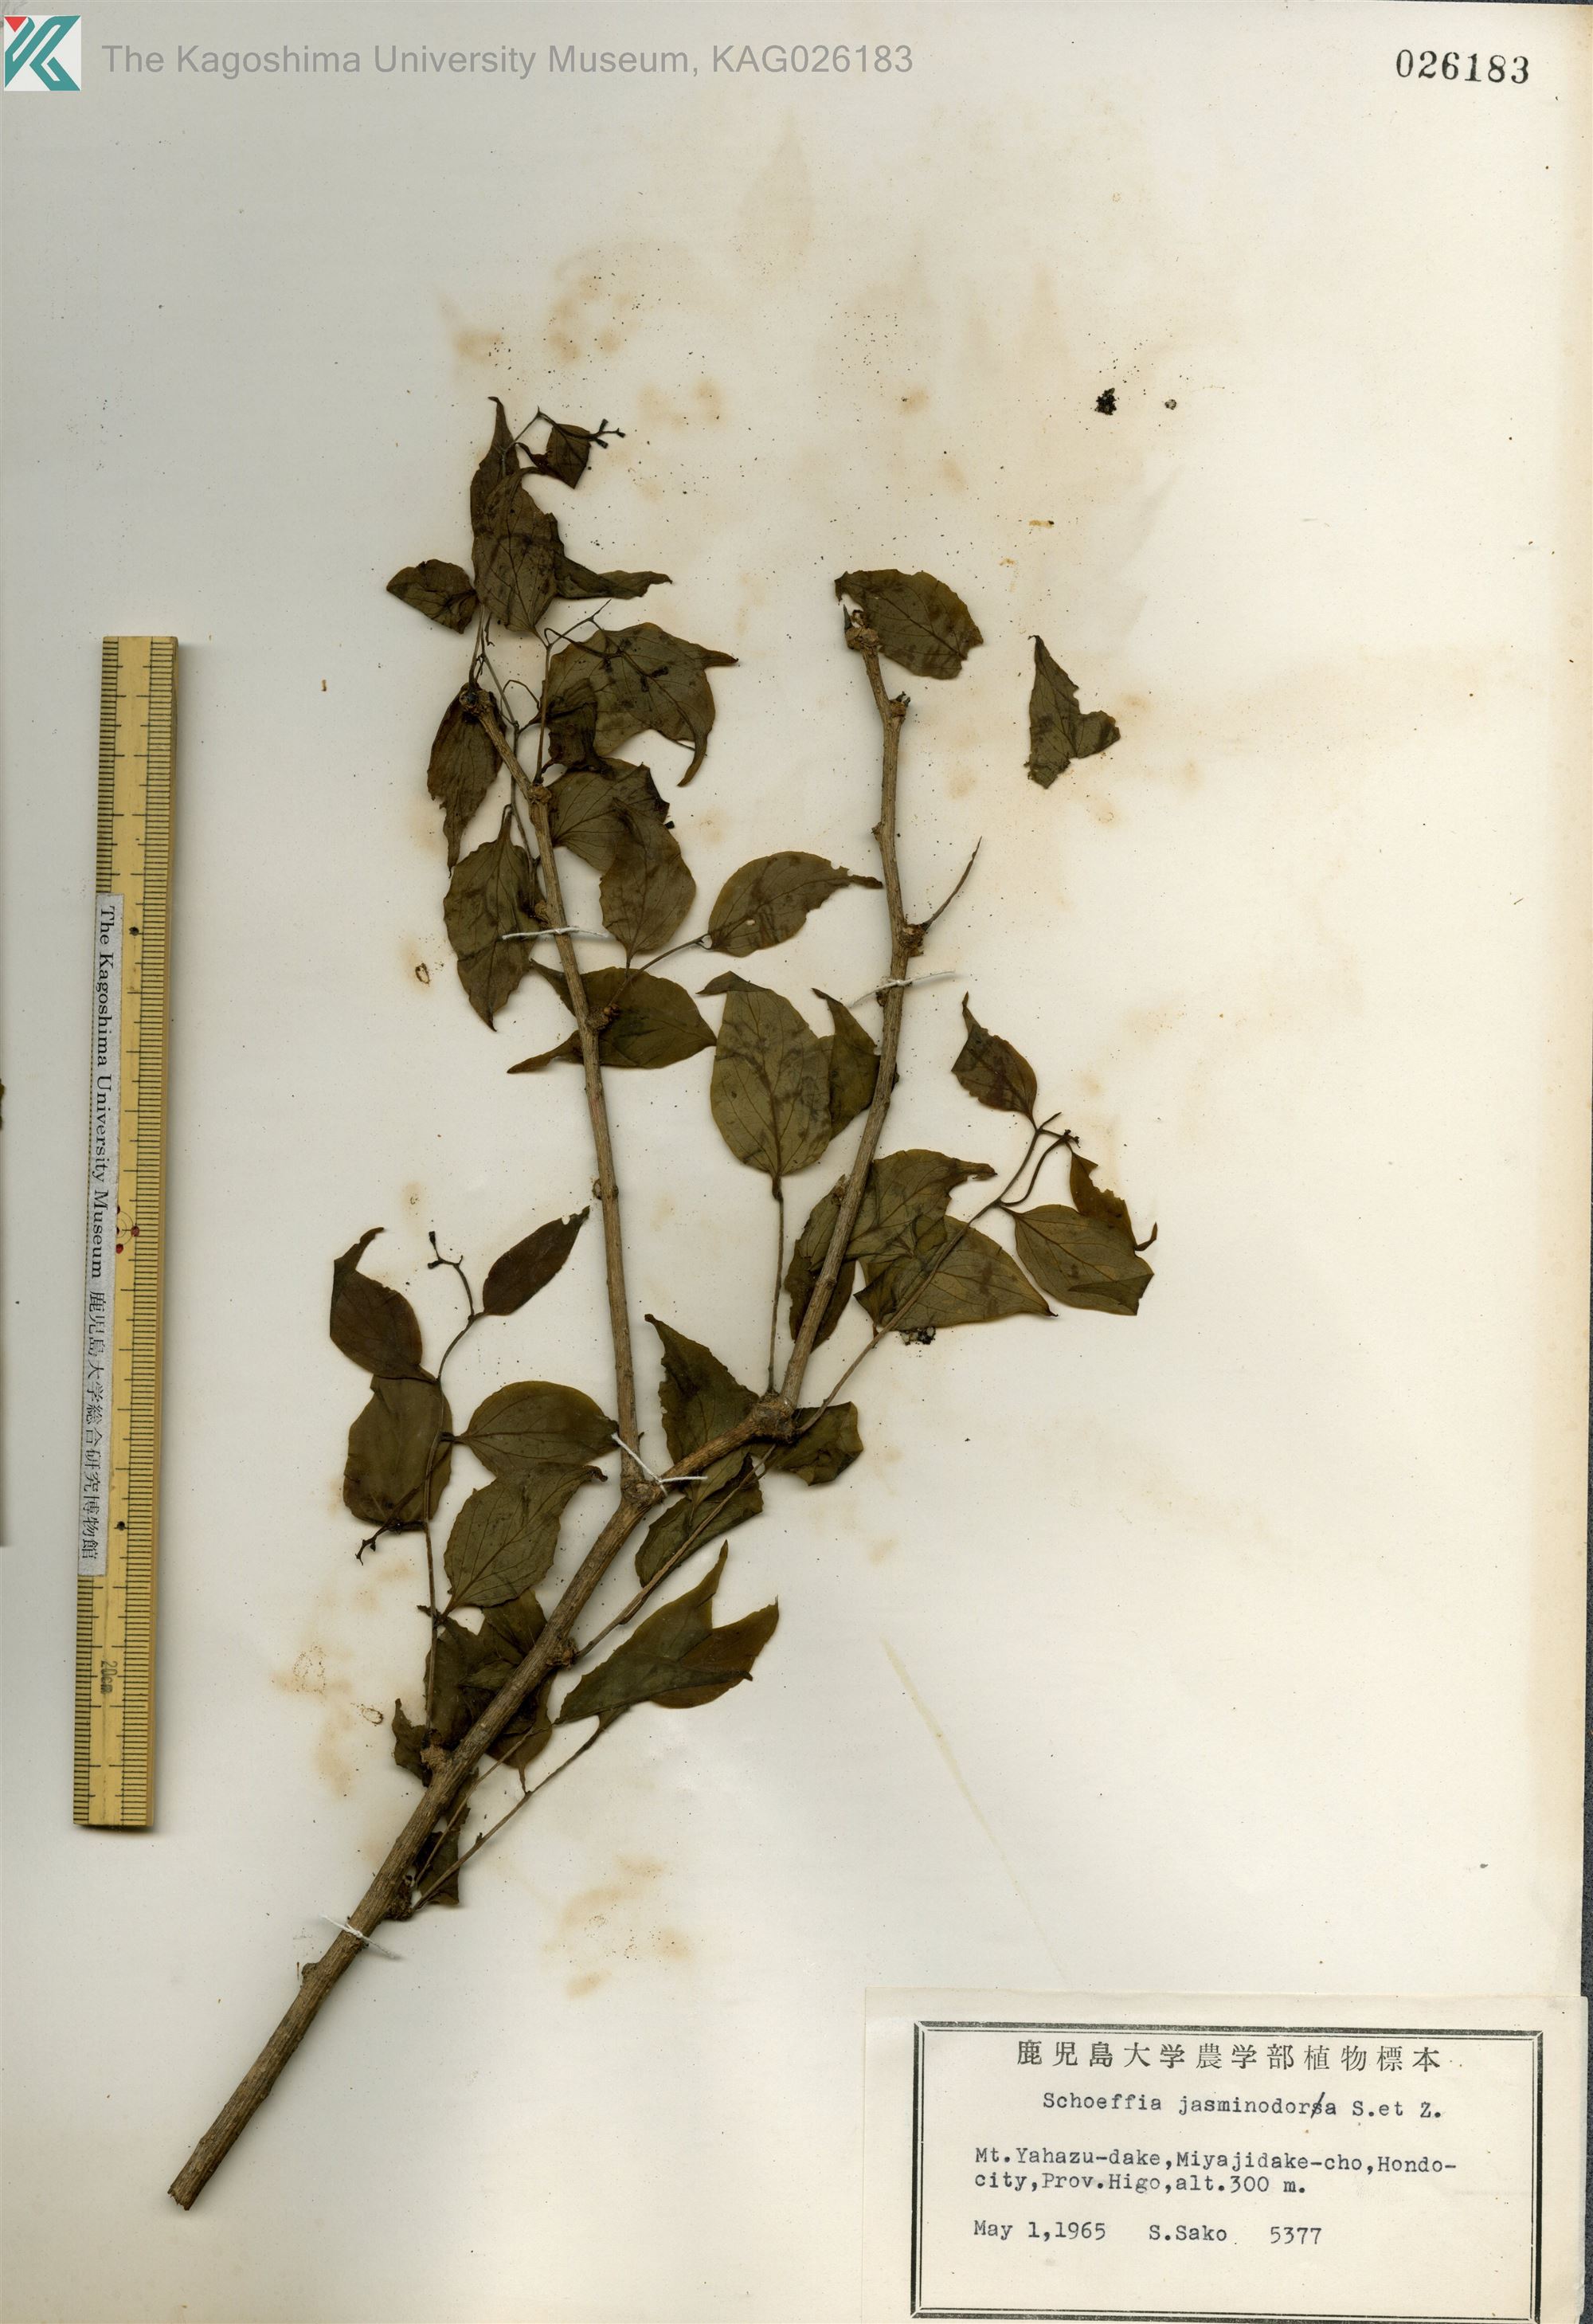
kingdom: Plantae
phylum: Tracheophyta
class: Magnoliopsida
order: Santalales
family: Schoepfiaceae
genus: Schoepfia
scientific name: Schoepfia jasminodora
